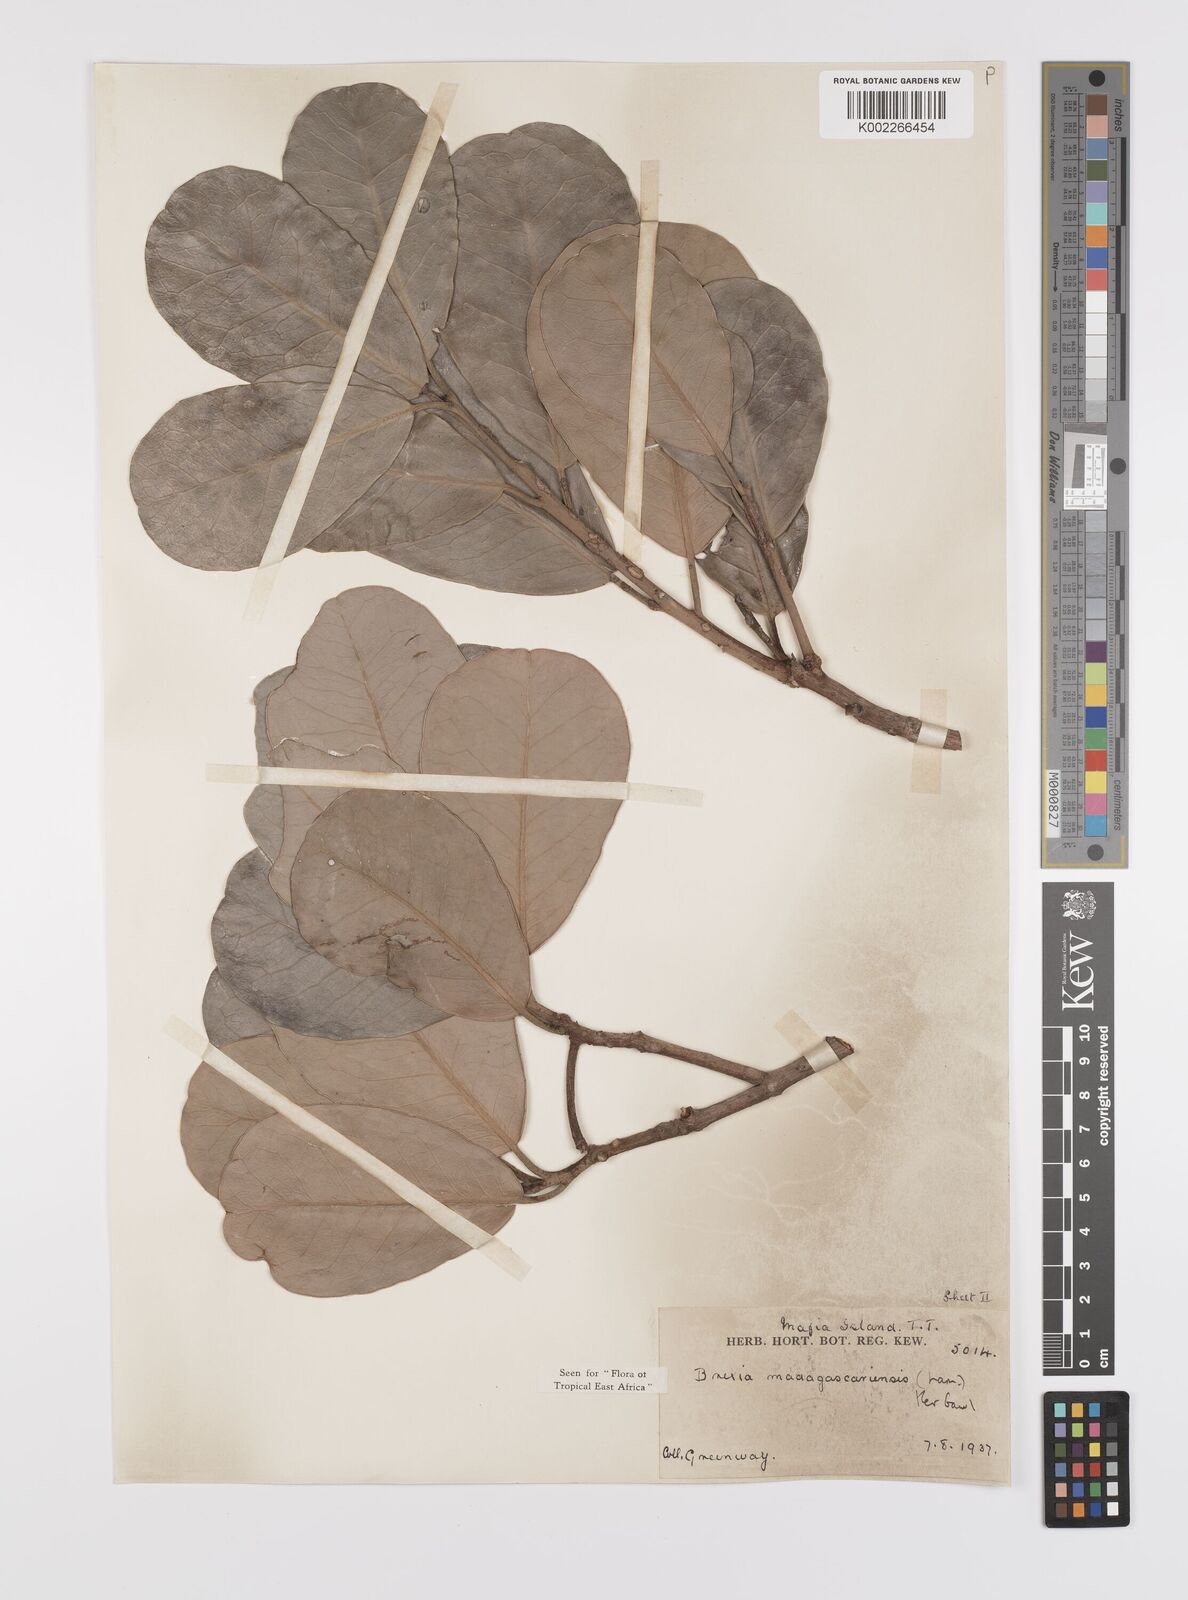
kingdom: Plantae
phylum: Tracheophyta
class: Magnoliopsida
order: Celastrales
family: Celastraceae
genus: Brexia
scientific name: Brexia madagascariensis
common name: Brexia
